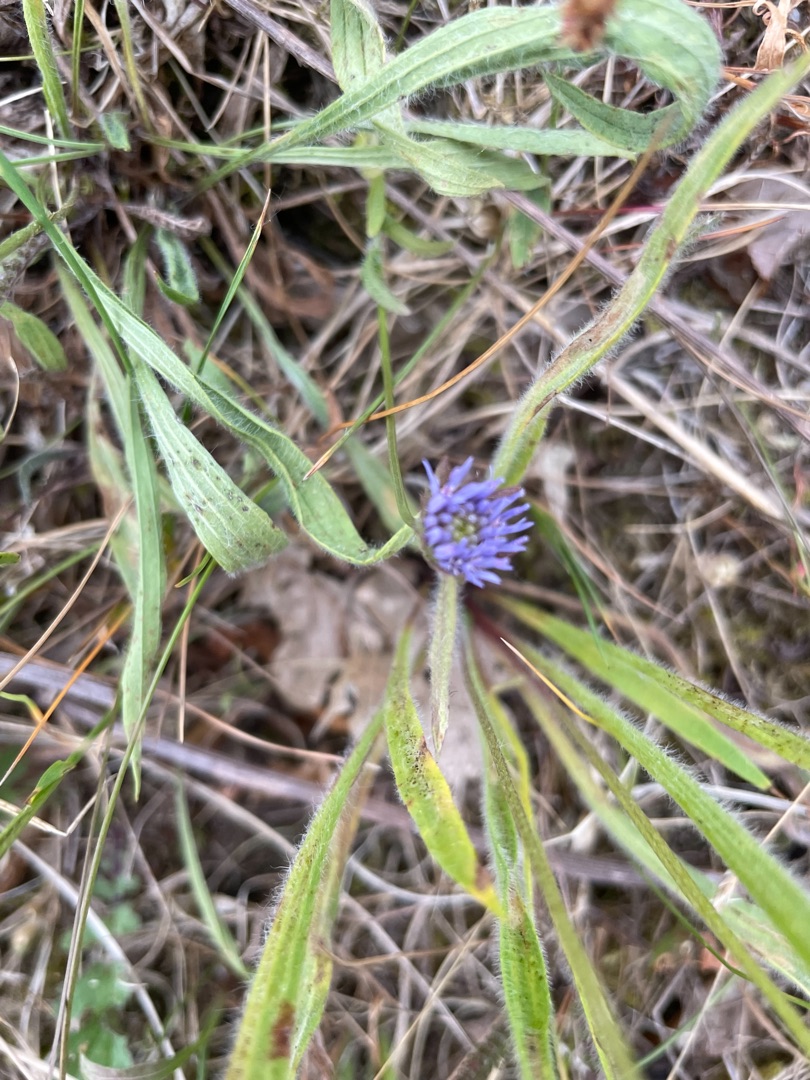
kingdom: Plantae
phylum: Tracheophyta
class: Magnoliopsida
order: Asterales
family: Campanulaceae
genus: Jasione
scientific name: Jasione montana
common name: Blåmunke
